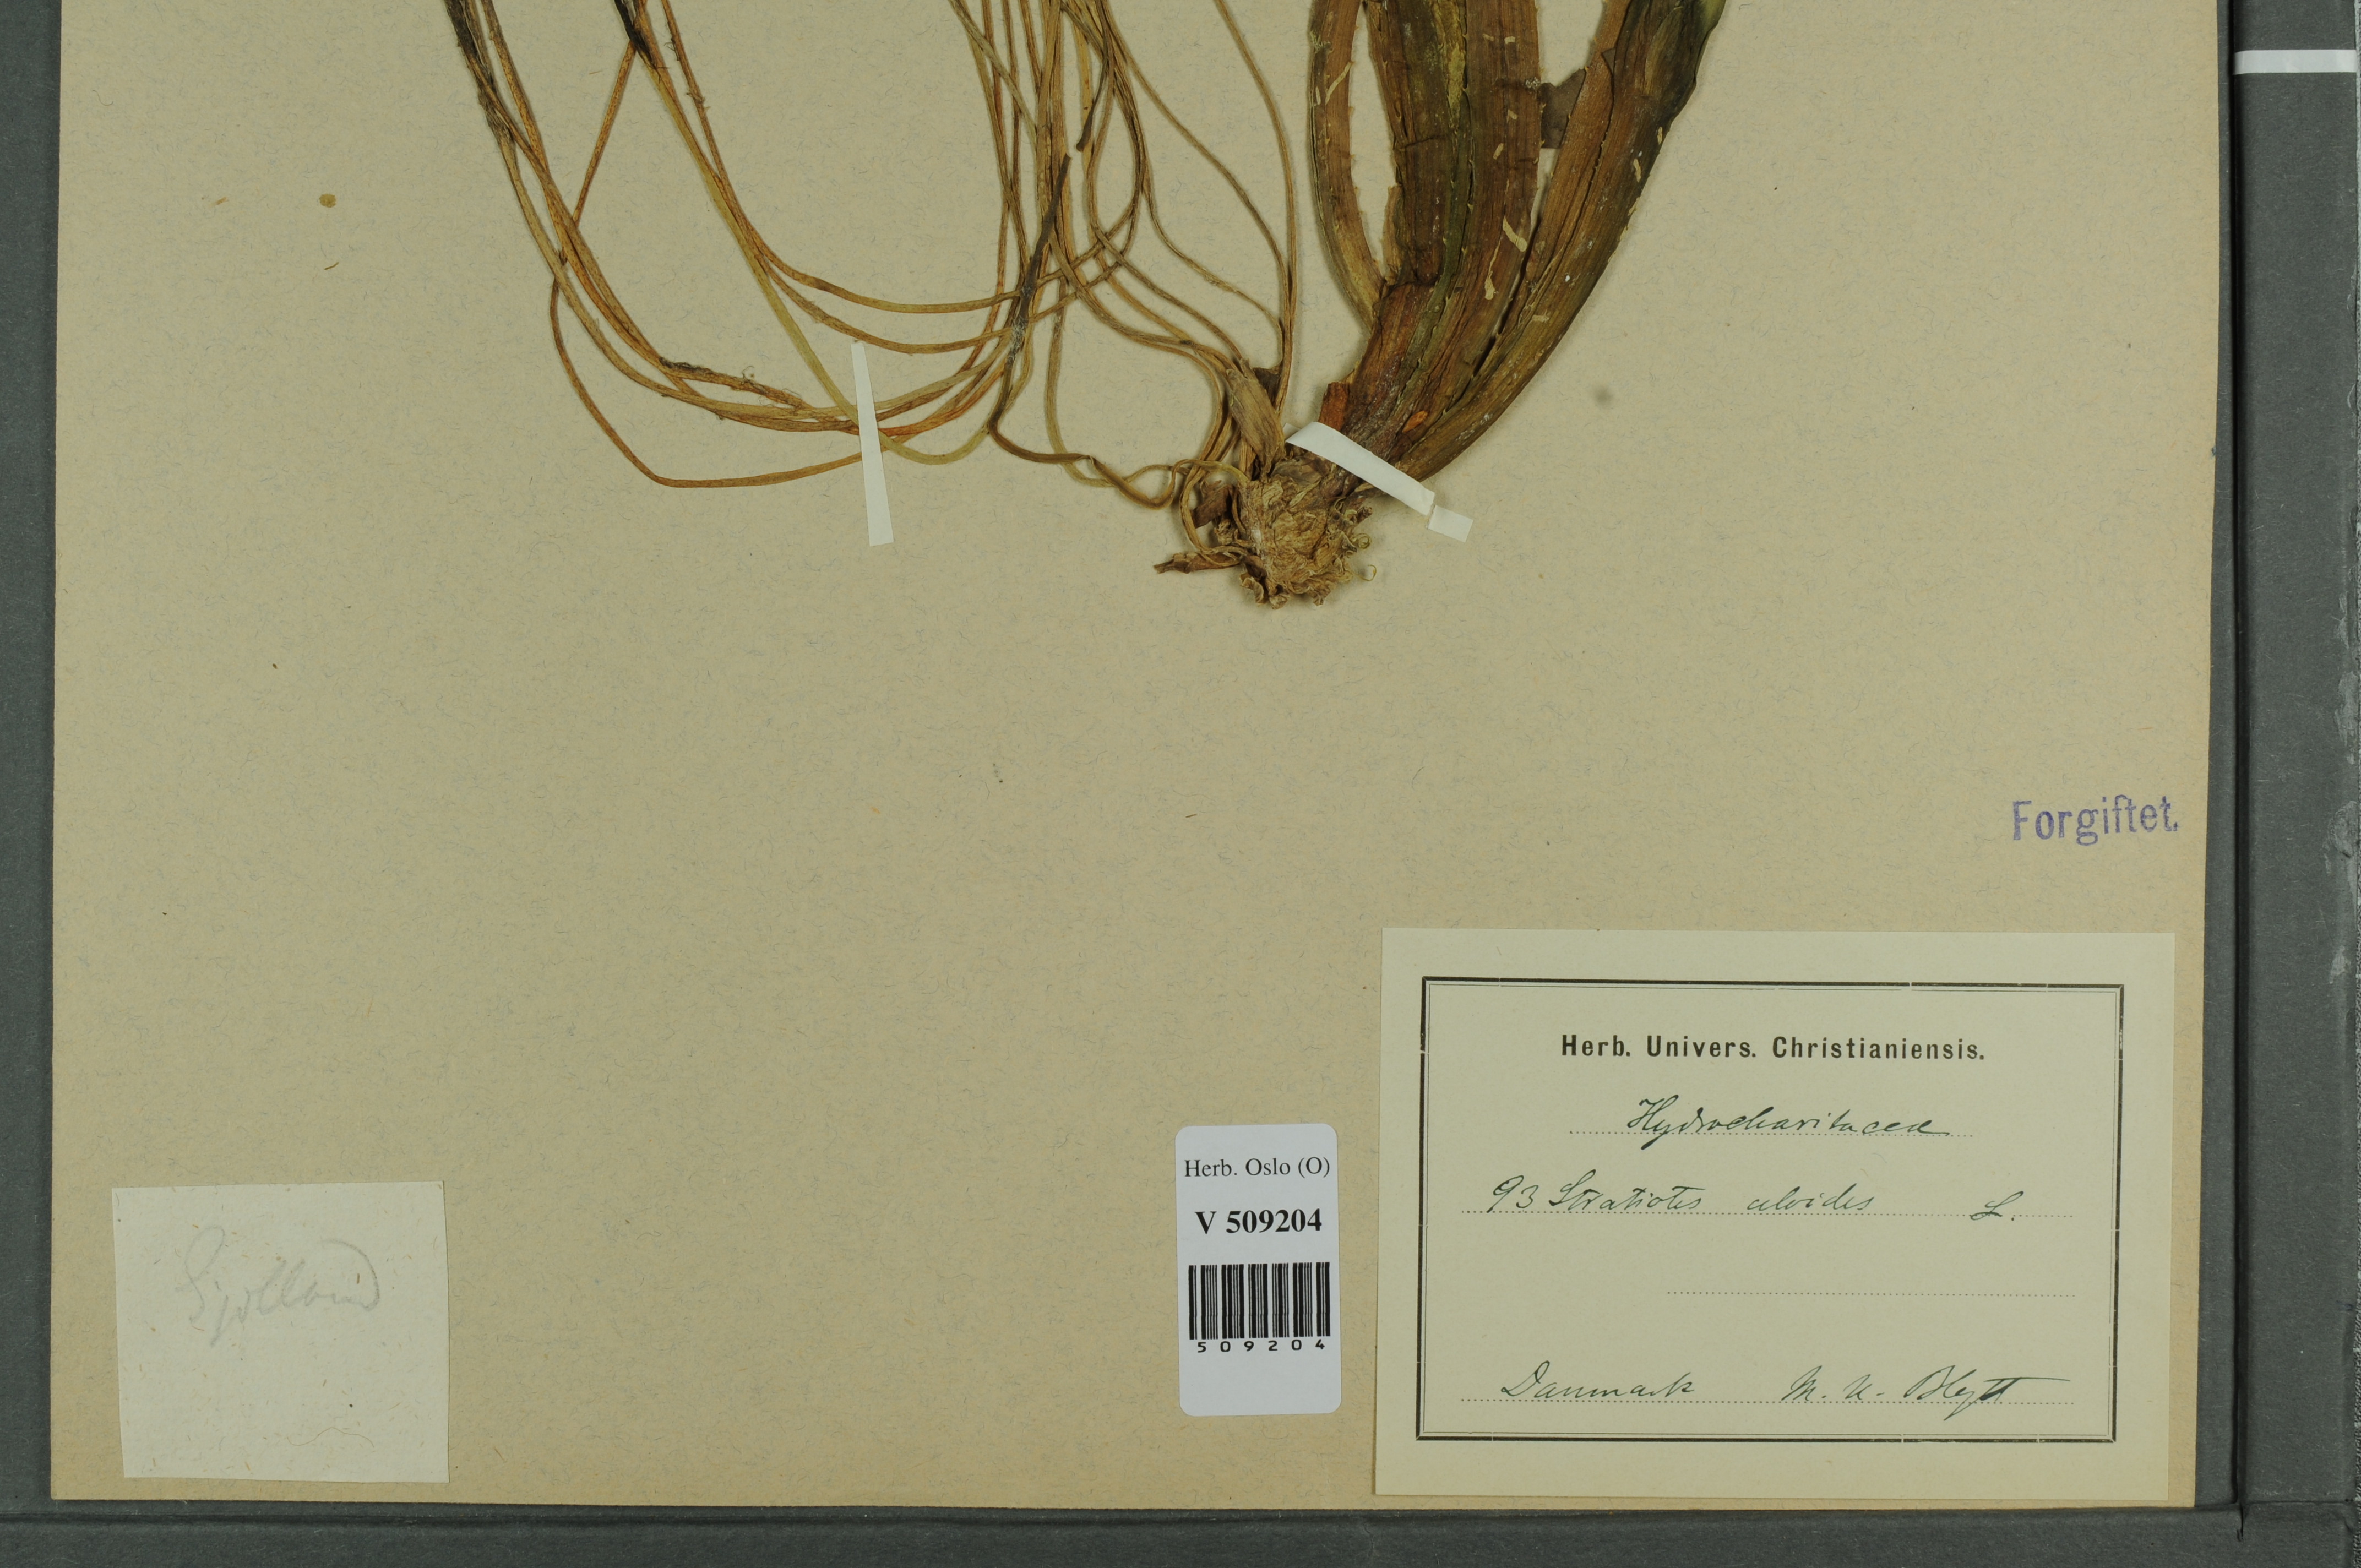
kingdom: Plantae
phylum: Tracheophyta
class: Liliopsida
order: Alismatales
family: Hydrocharitaceae
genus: Stratiotes
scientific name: Stratiotes aloides
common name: Water-soldier
